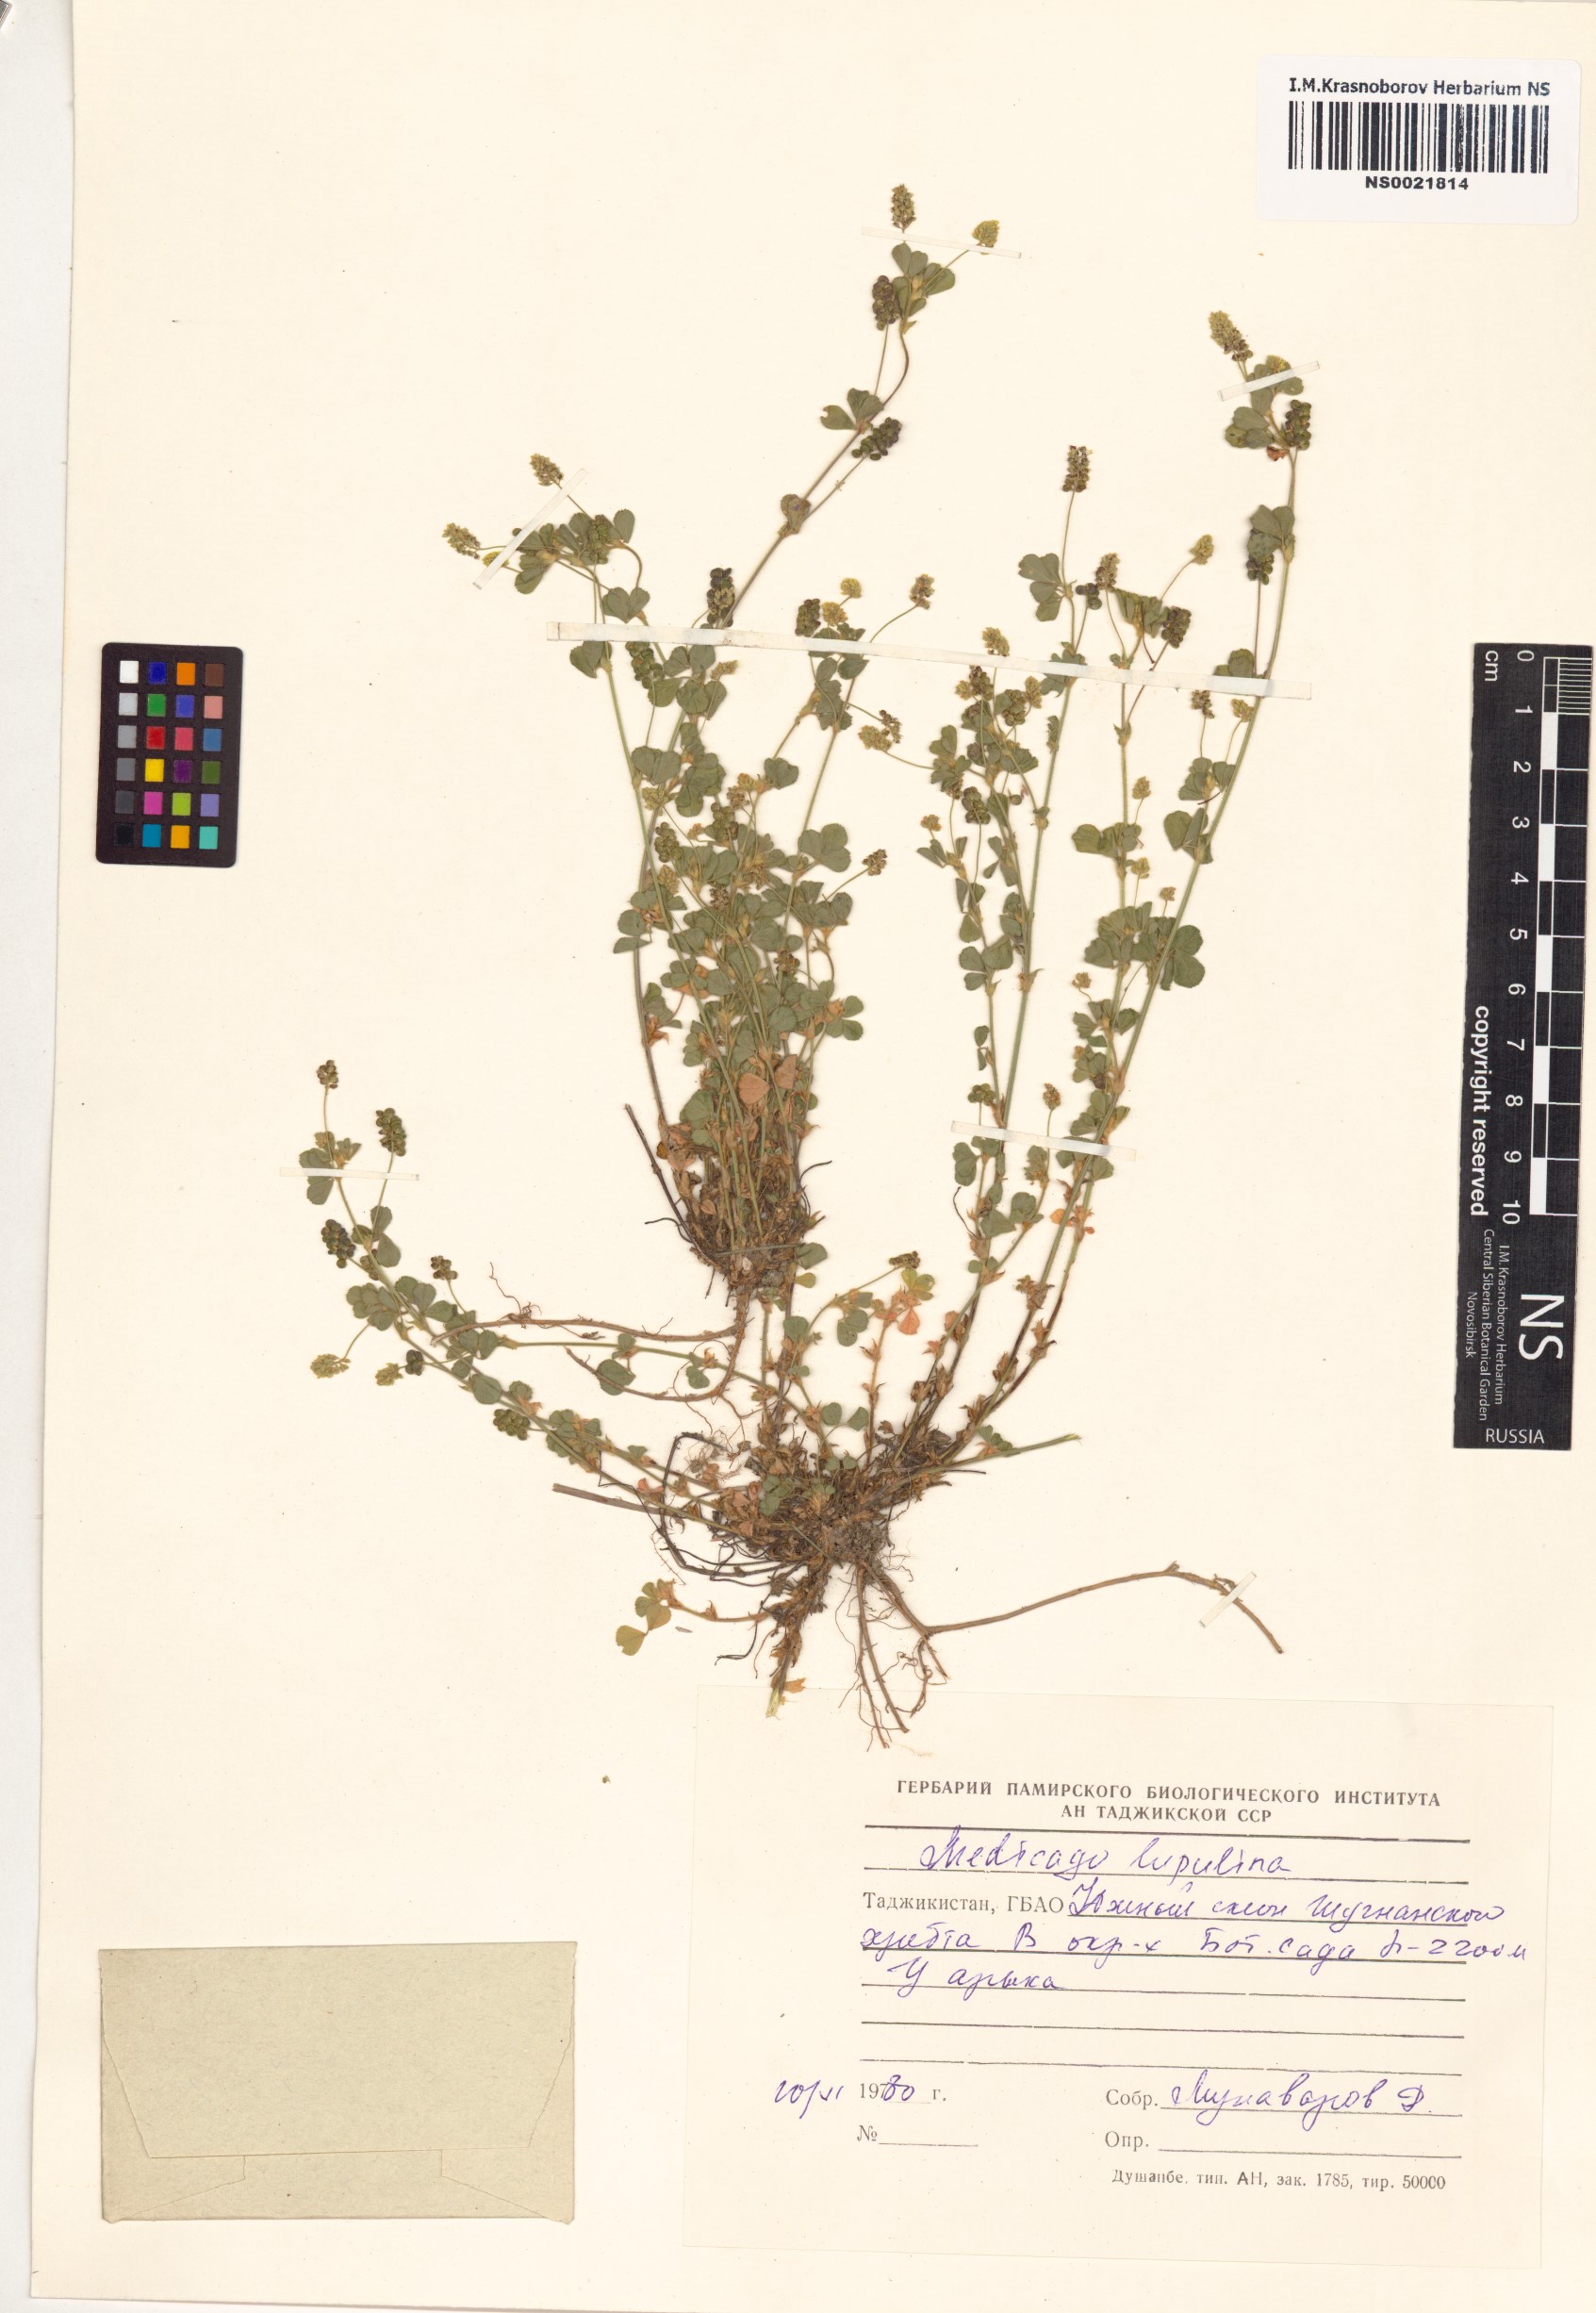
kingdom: Plantae
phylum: Tracheophyta
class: Magnoliopsida
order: Fabales
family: Fabaceae
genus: Medicago
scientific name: Medicago lupulina
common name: Black medick
